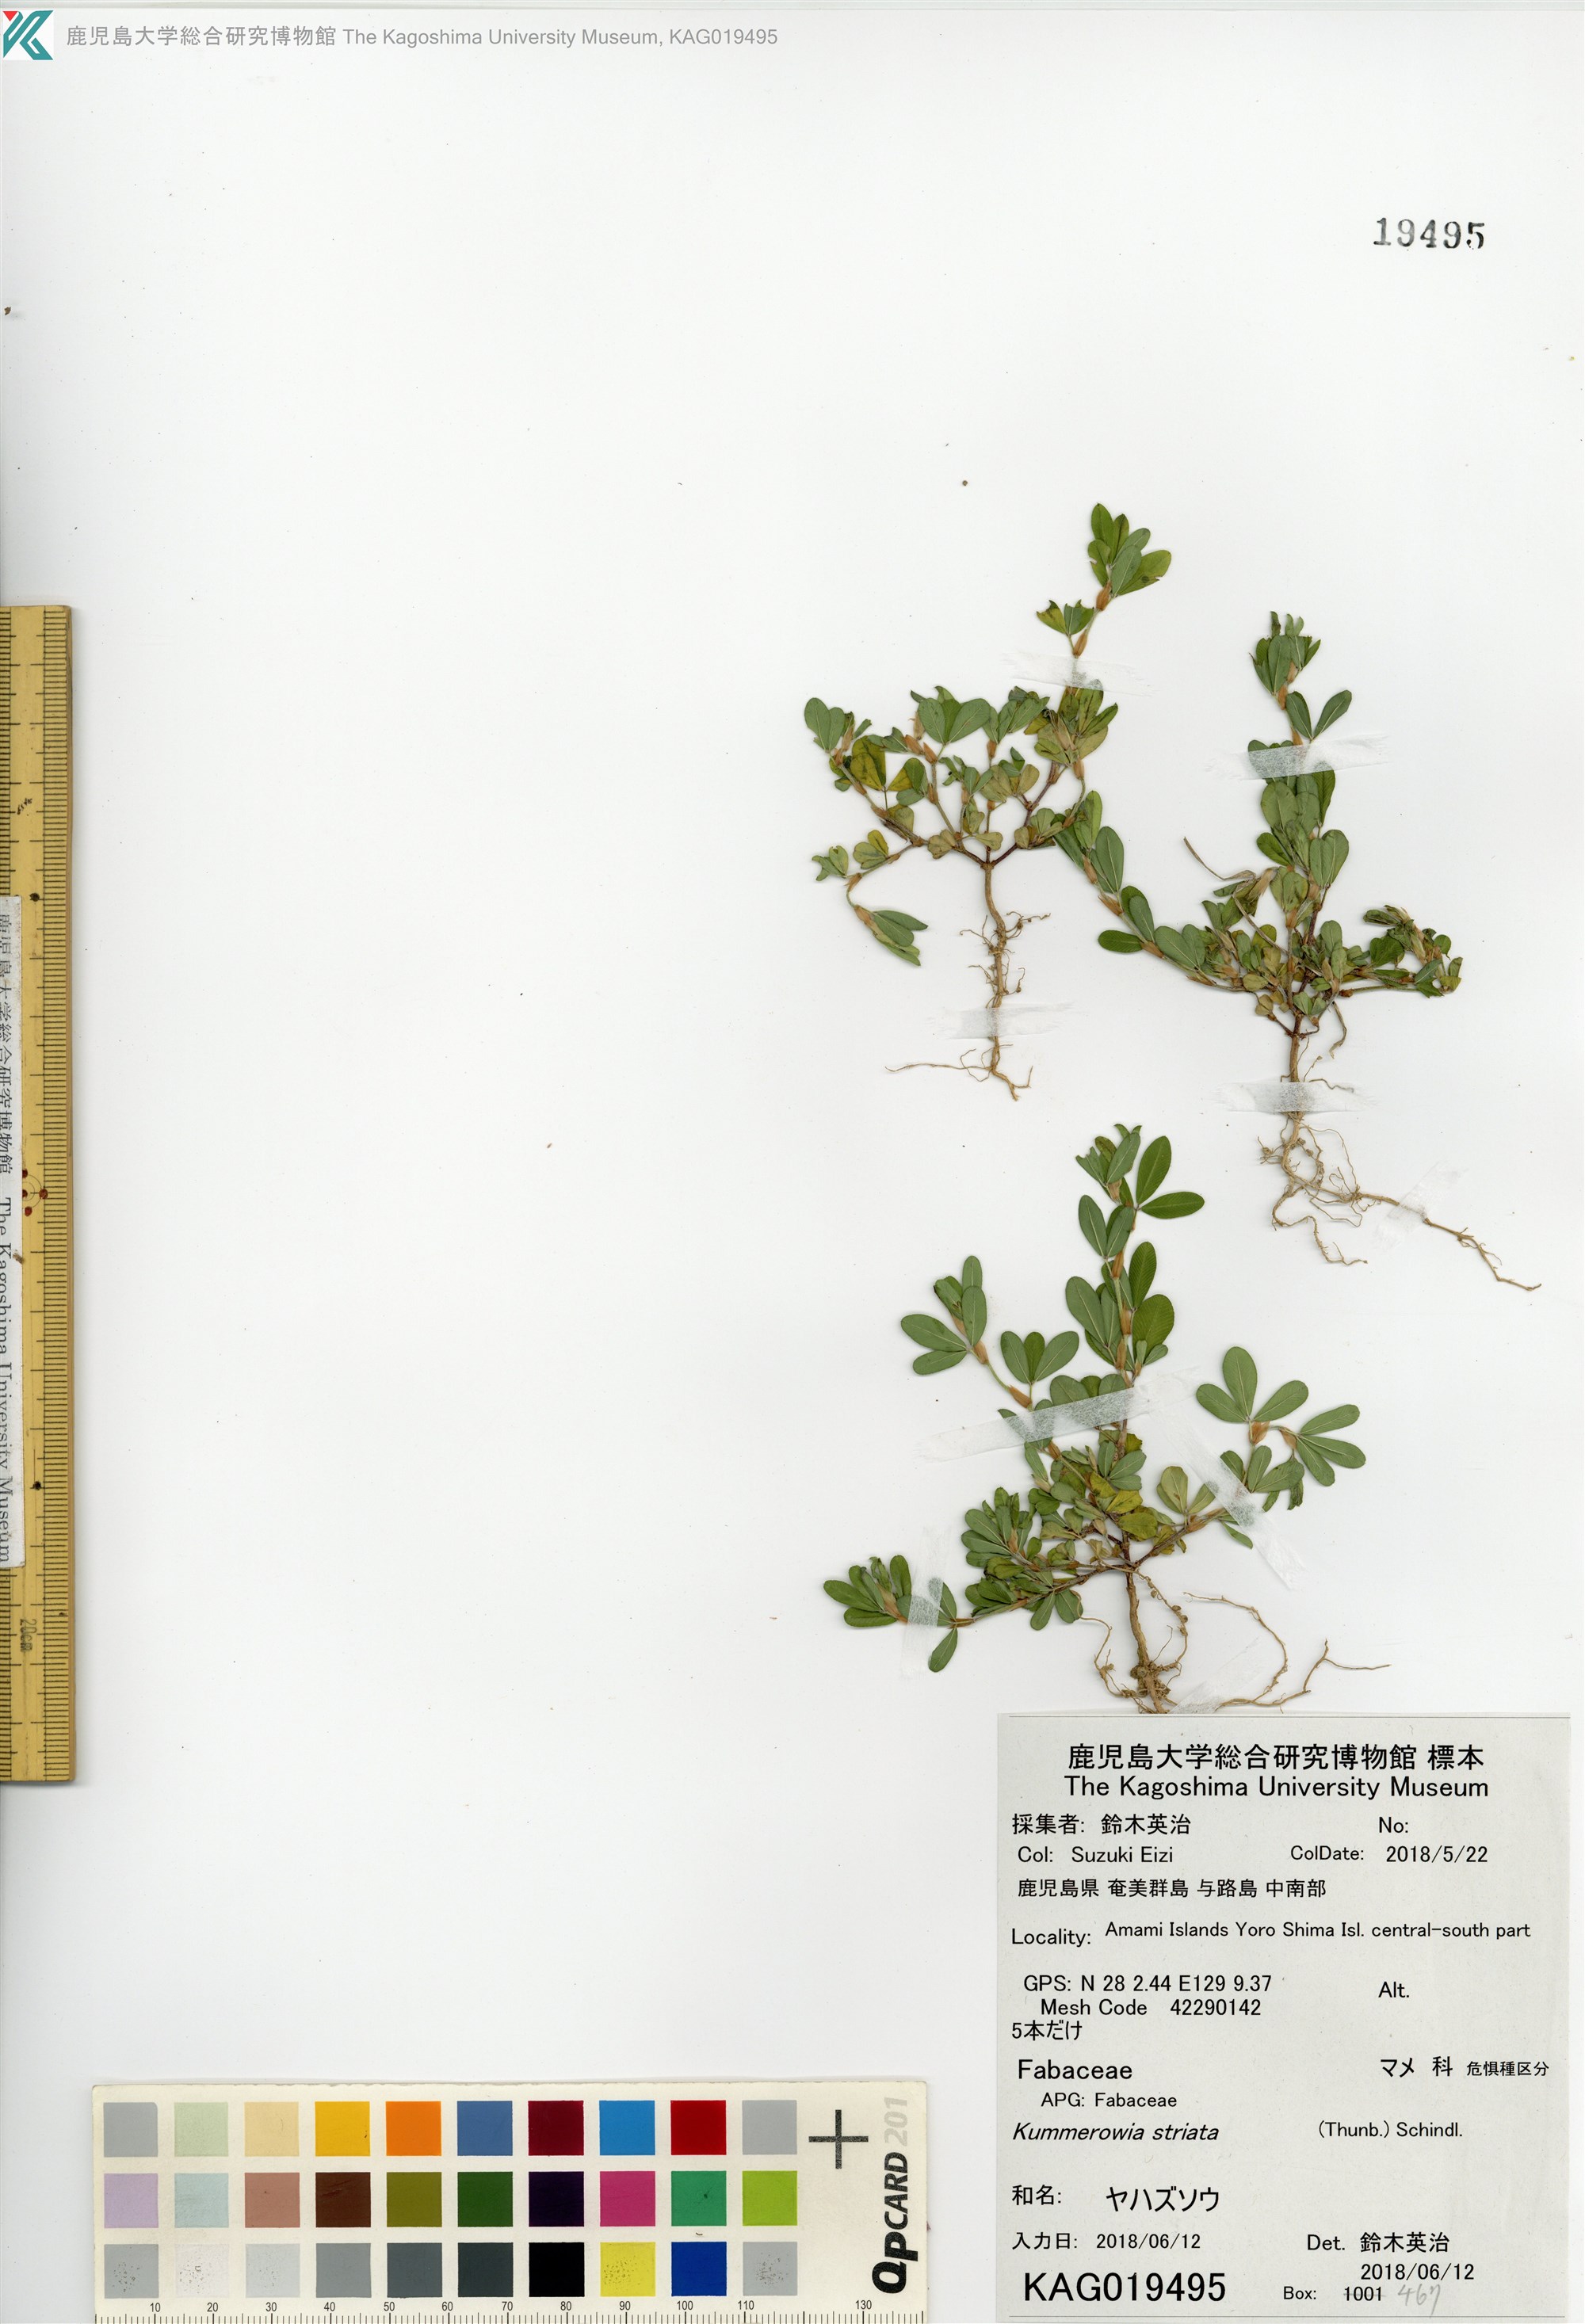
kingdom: Plantae
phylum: Tracheophyta
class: Magnoliopsida
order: Fabales
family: Fabaceae
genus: Kummerowia
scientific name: Kummerowia striata
